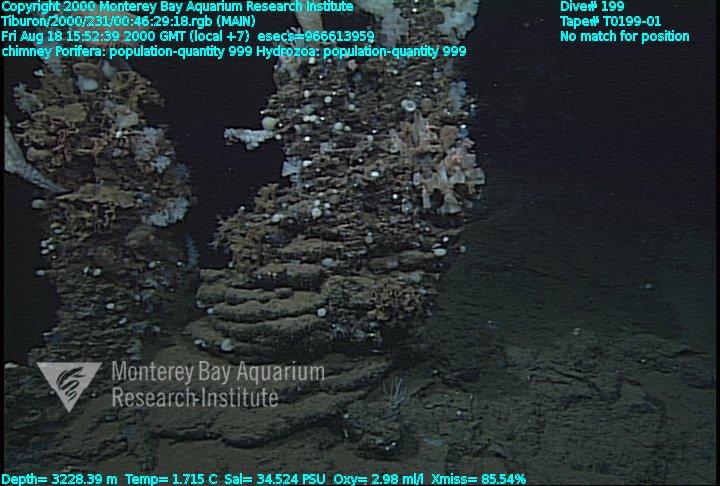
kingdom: Animalia
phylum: Porifera
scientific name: Porifera
